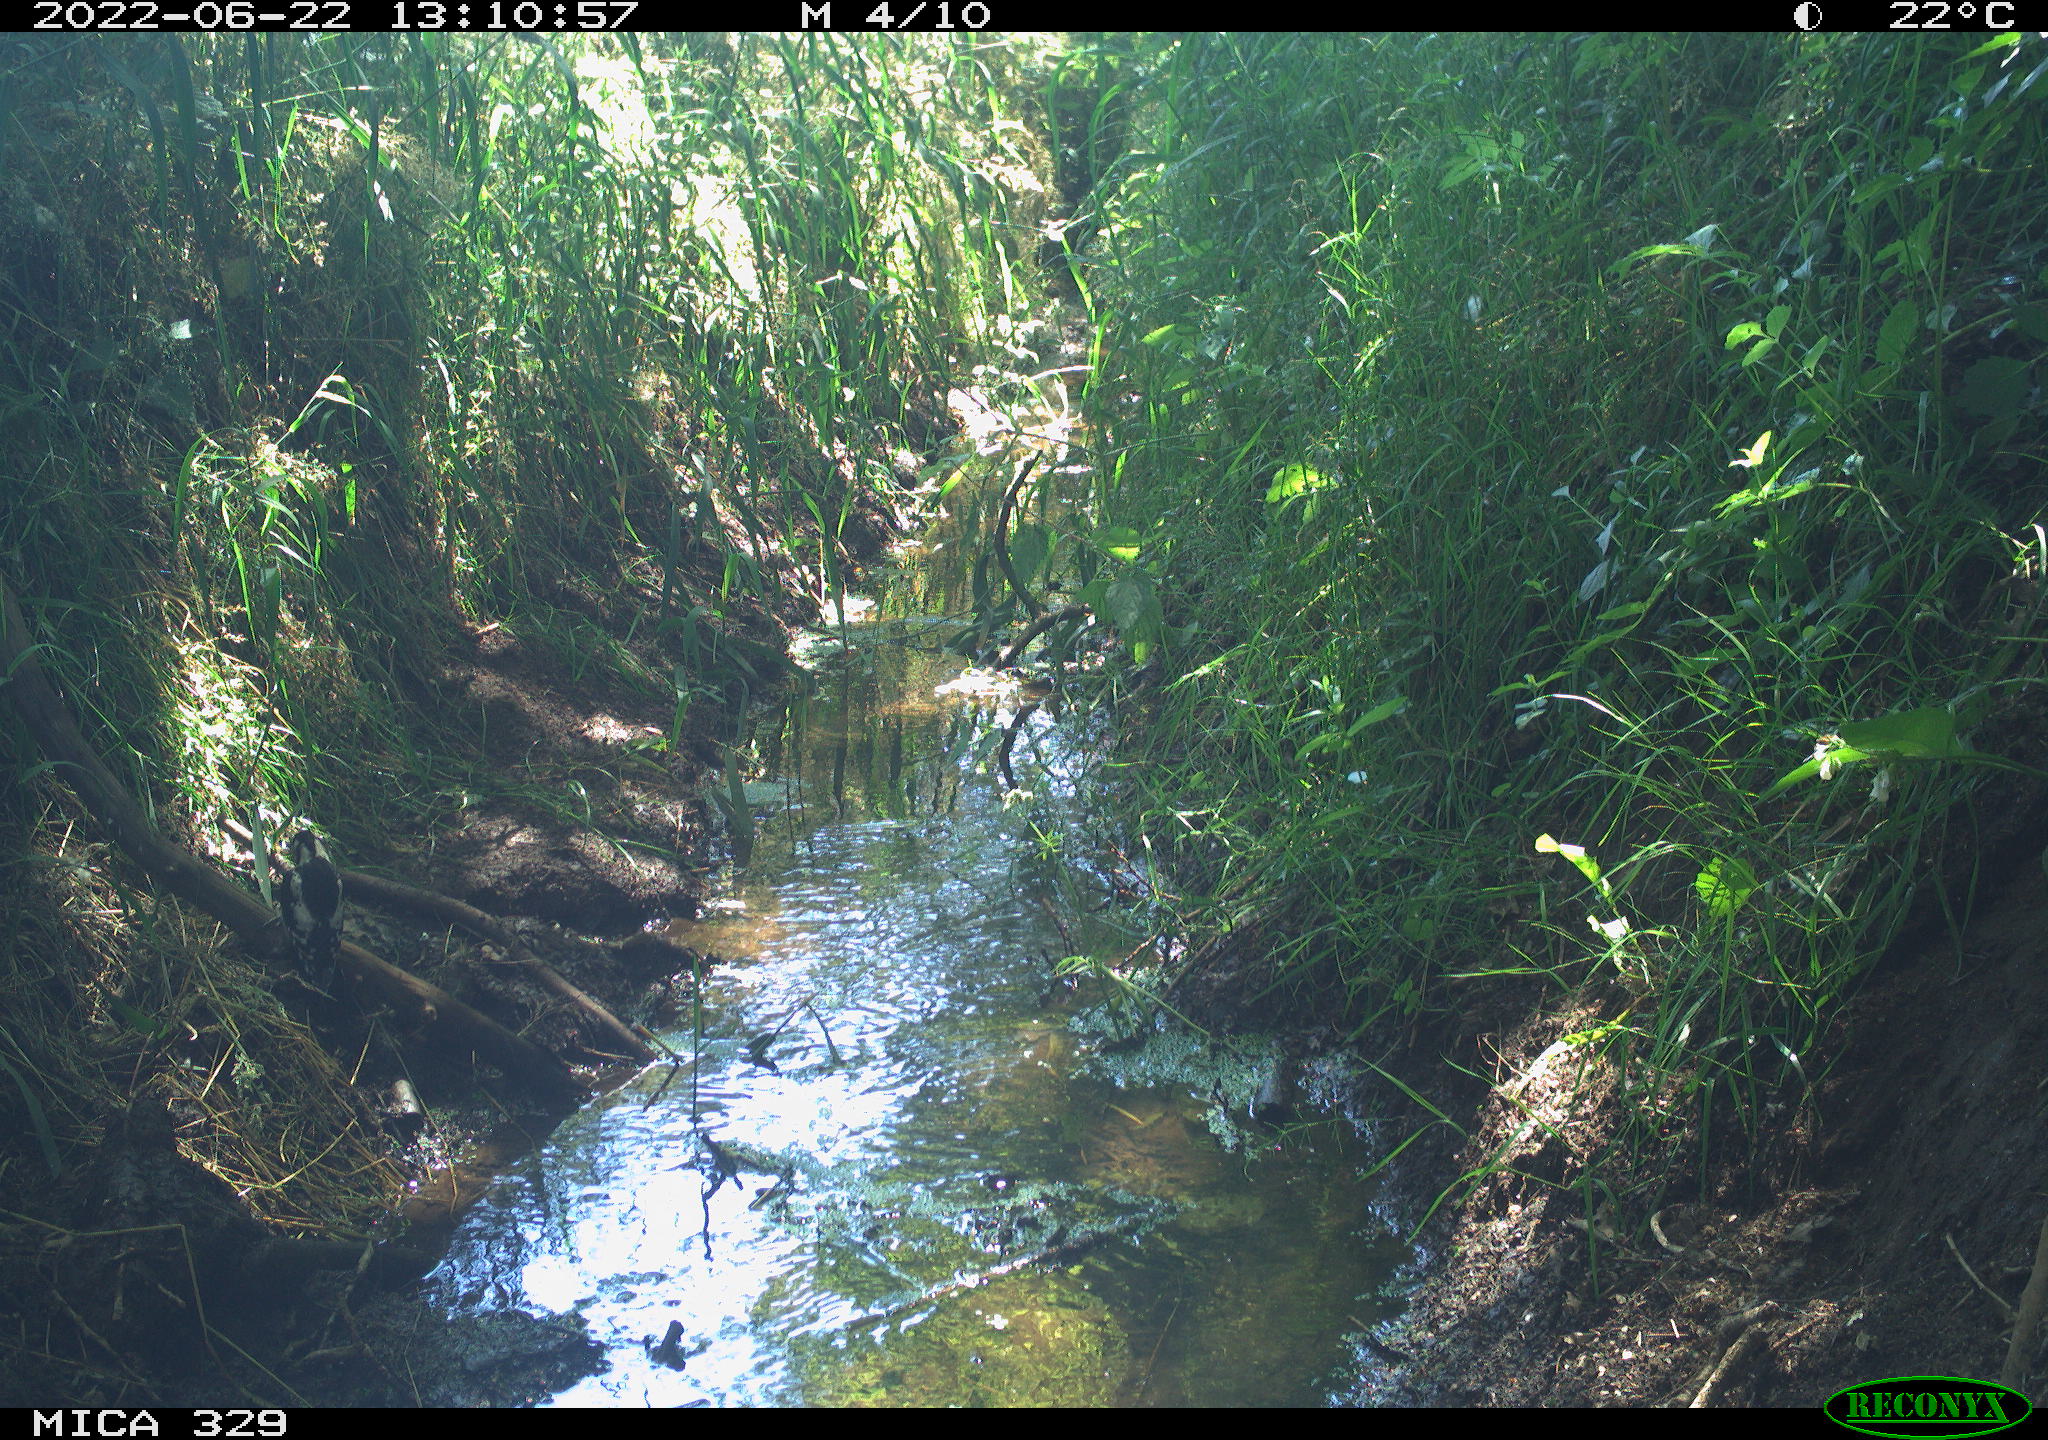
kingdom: Animalia
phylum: Chordata
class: Aves
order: Piciformes
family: Picidae
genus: Dendrocopos
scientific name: Dendrocopos major
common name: Great spotted woodpecker
